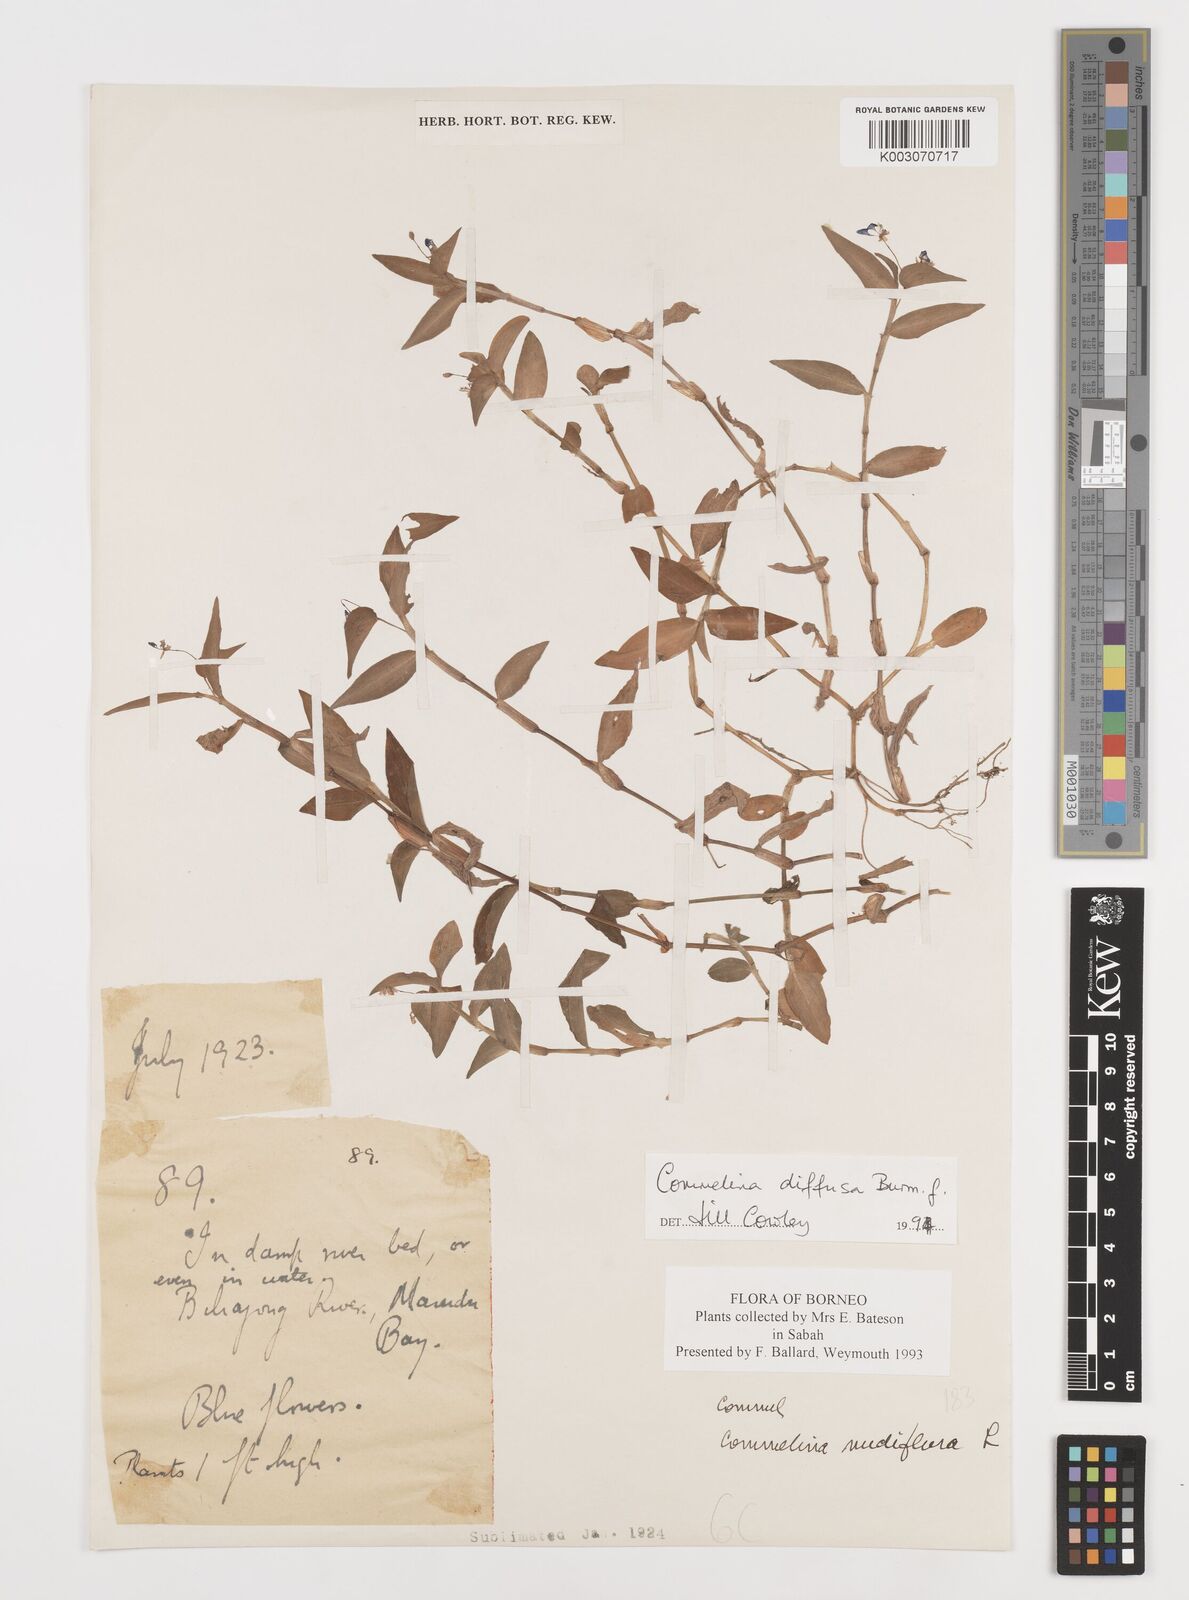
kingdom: Plantae
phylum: Tracheophyta
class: Liliopsida
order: Commelinales
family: Commelinaceae
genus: Commelina
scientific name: Commelina clavata
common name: Willow leaved dayflower
